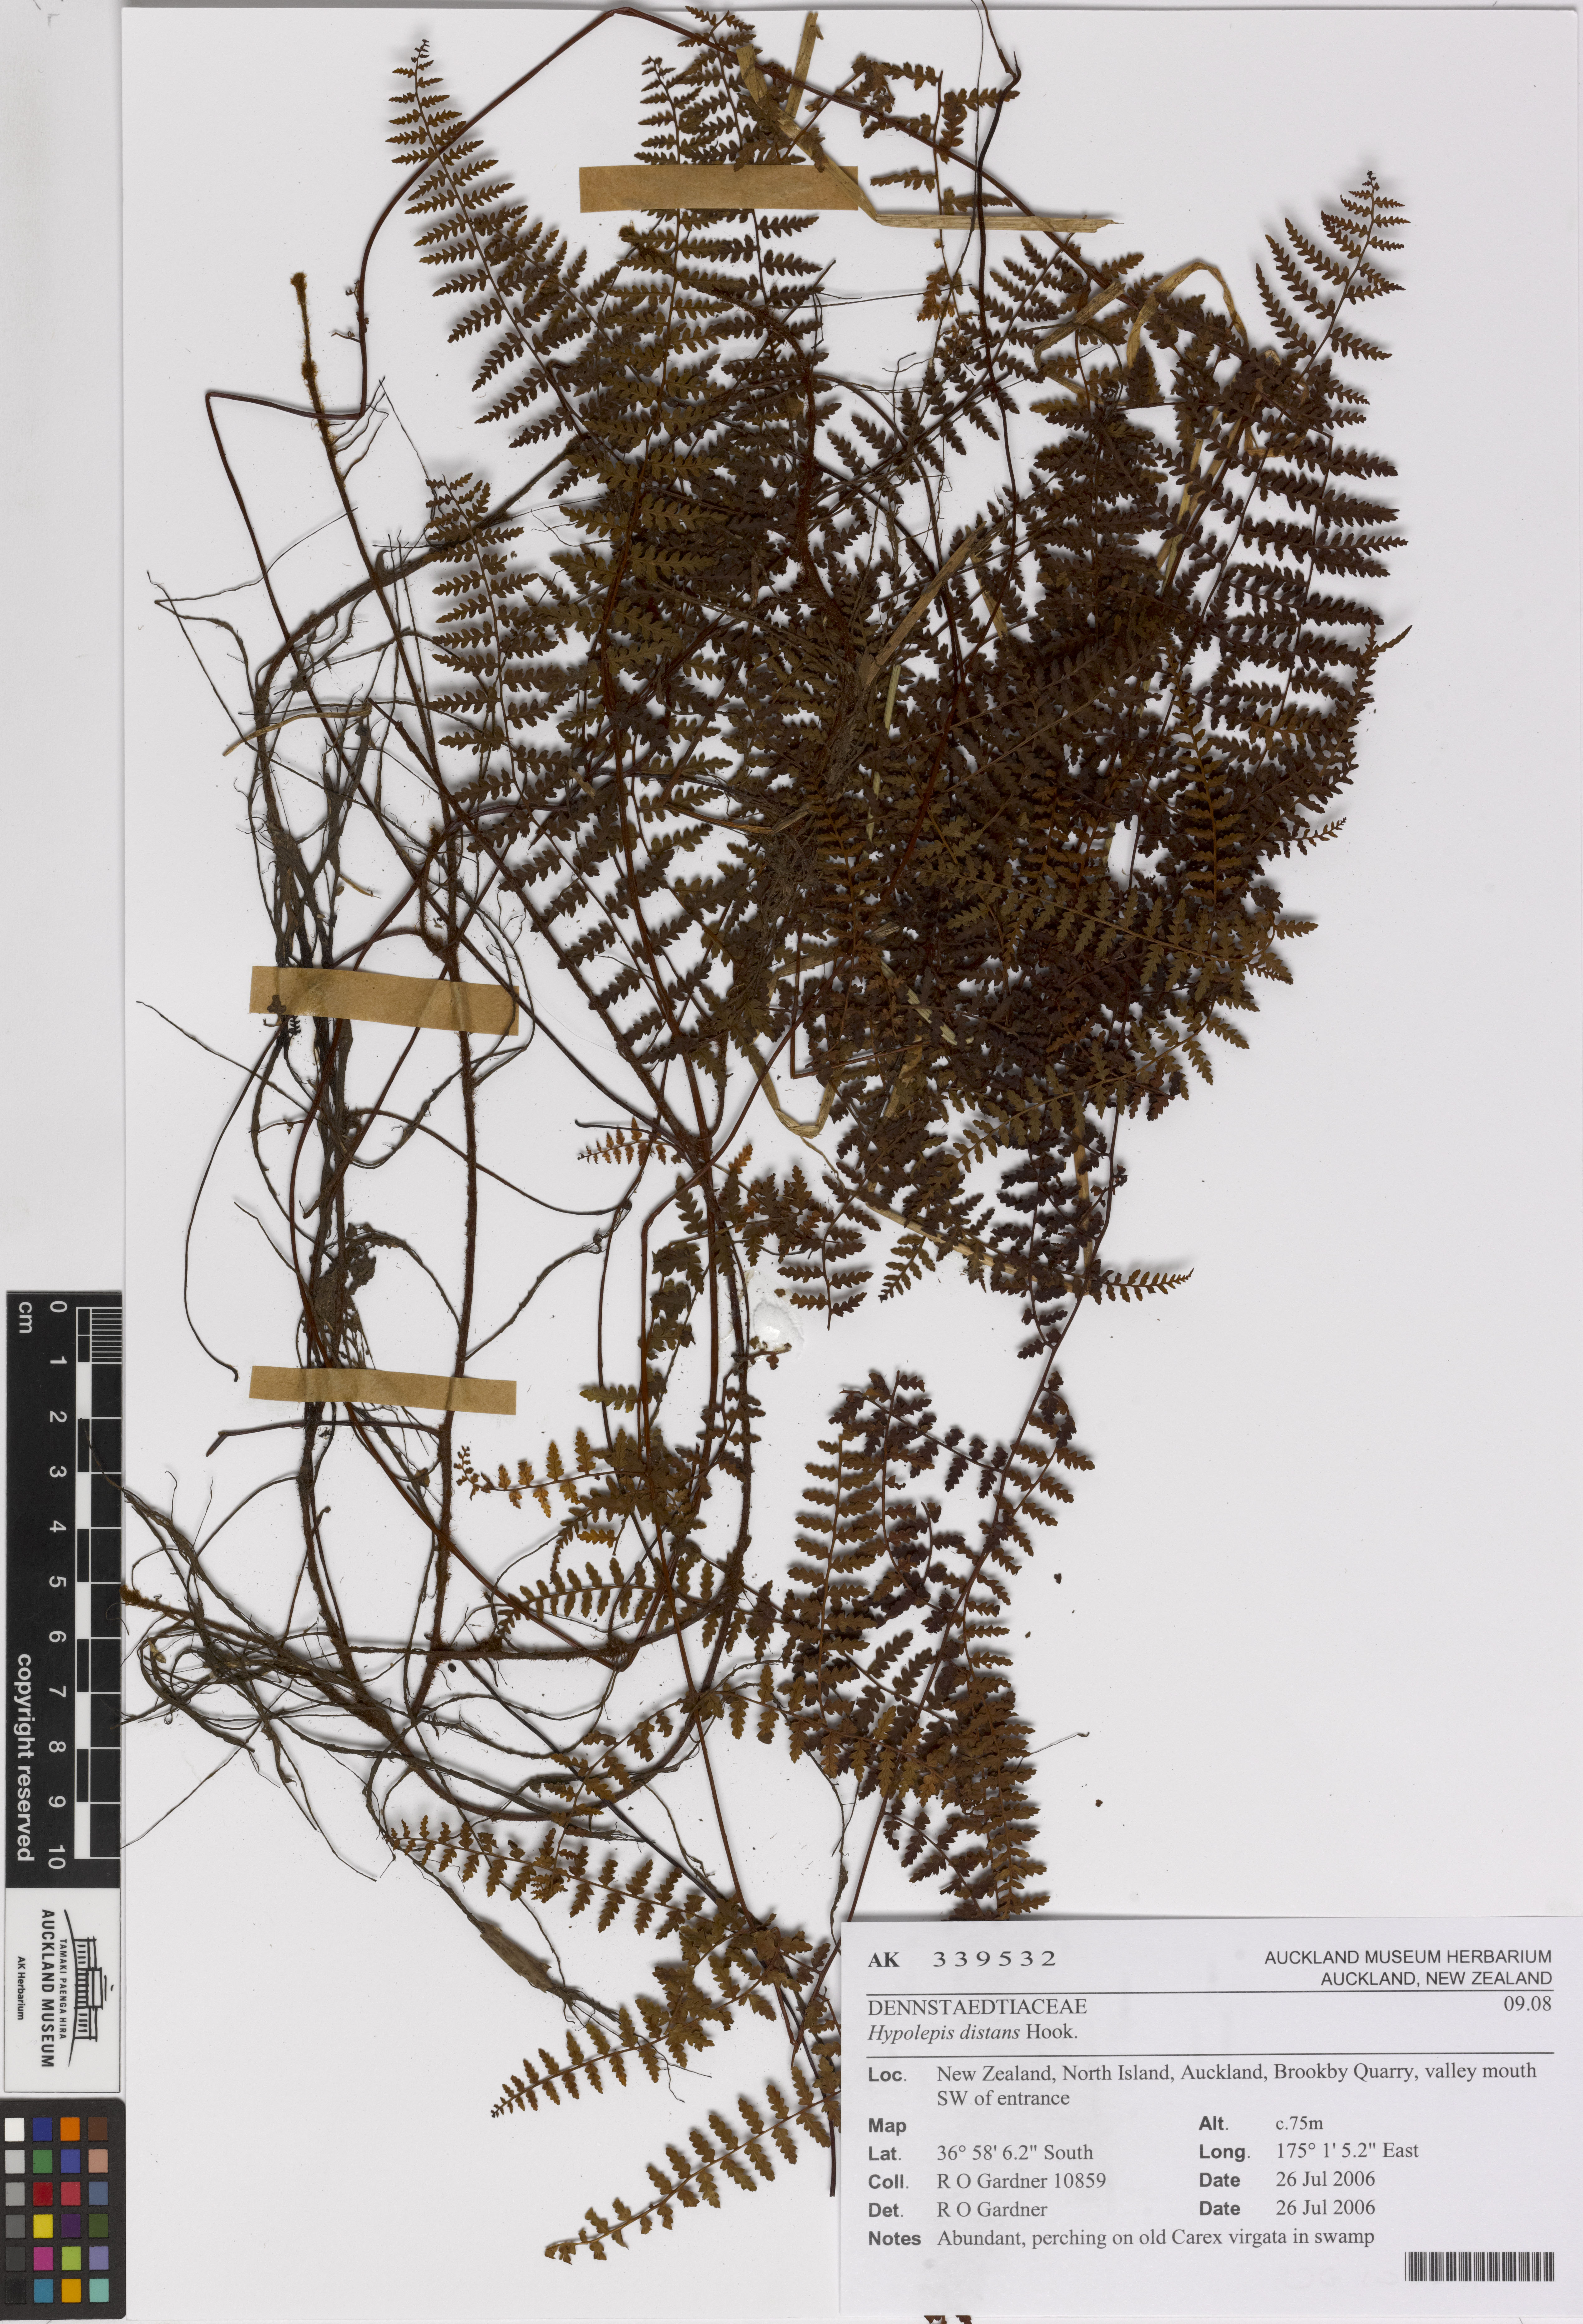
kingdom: Plantae
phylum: Tracheophyta
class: Polypodiopsida
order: Polypodiales
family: Dennstaedtiaceae
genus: Hiya
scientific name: Hiya distans
